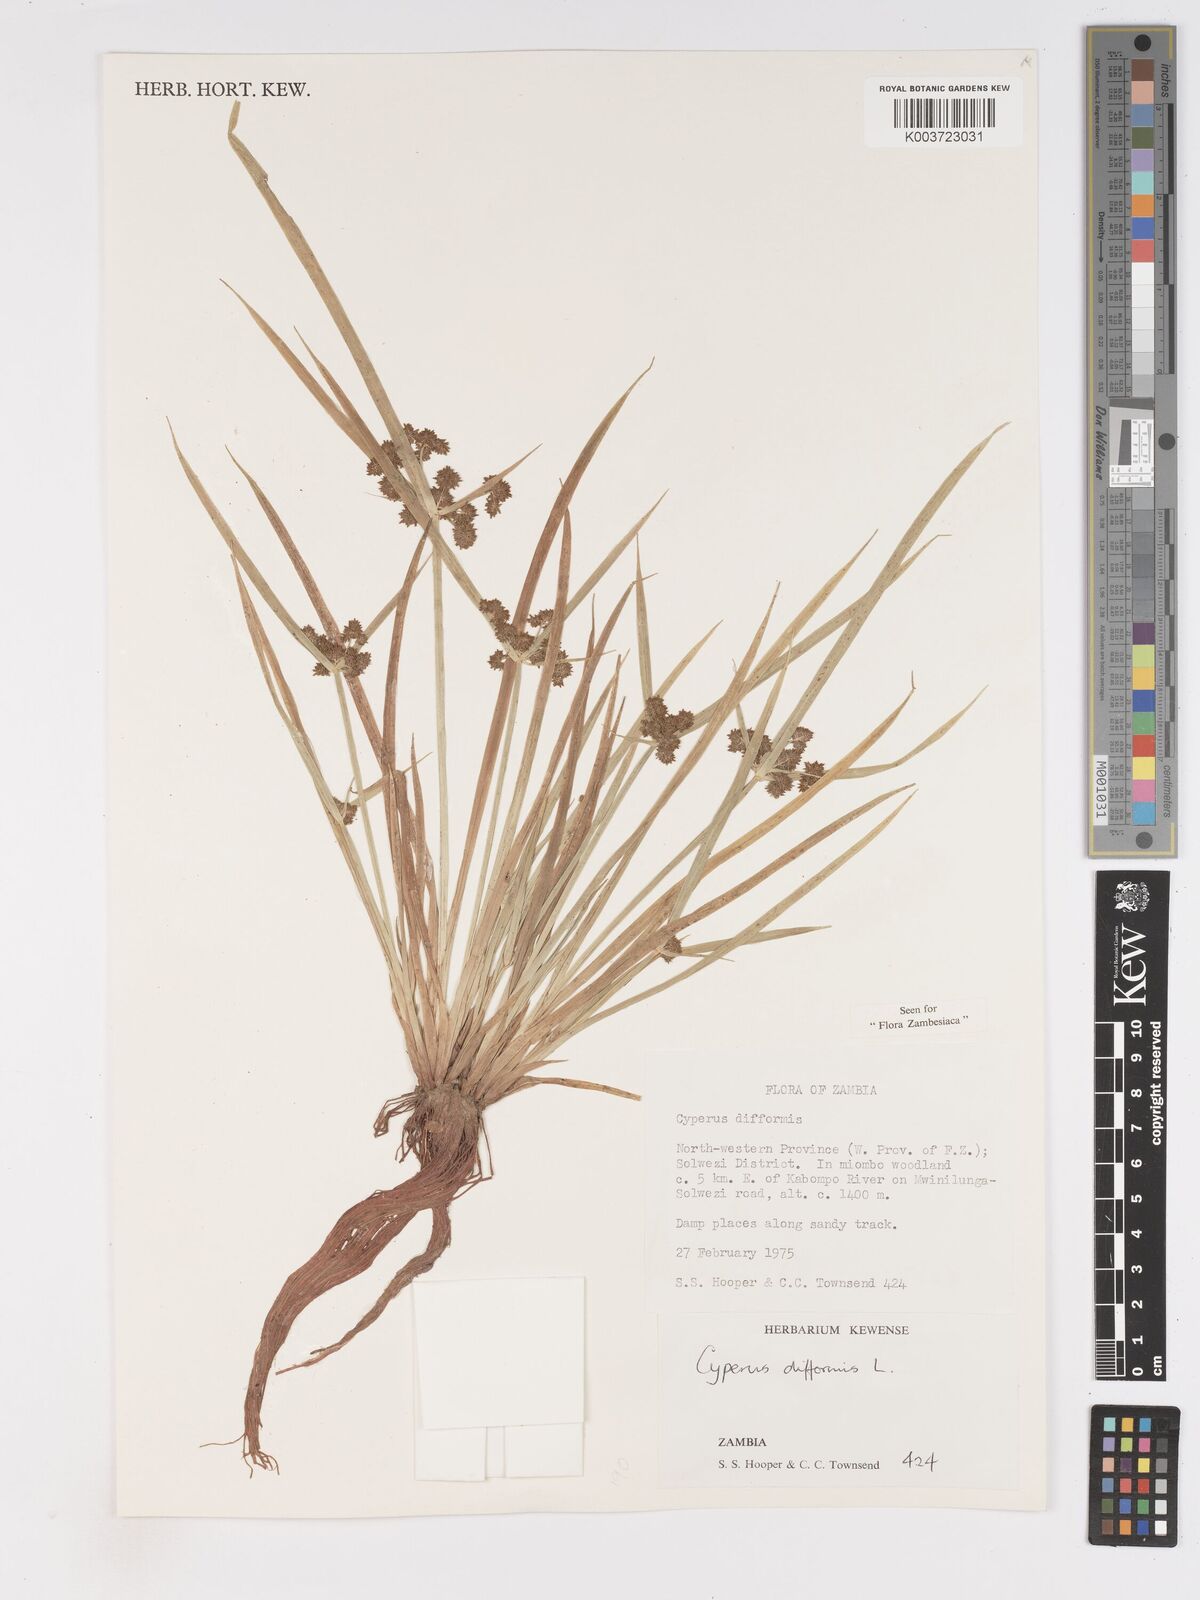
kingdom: Plantae
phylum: Tracheophyta
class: Liliopsida
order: Poales
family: Cyperaceae
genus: Cyperus
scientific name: Cyperus difformis
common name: Variable flatsedge
